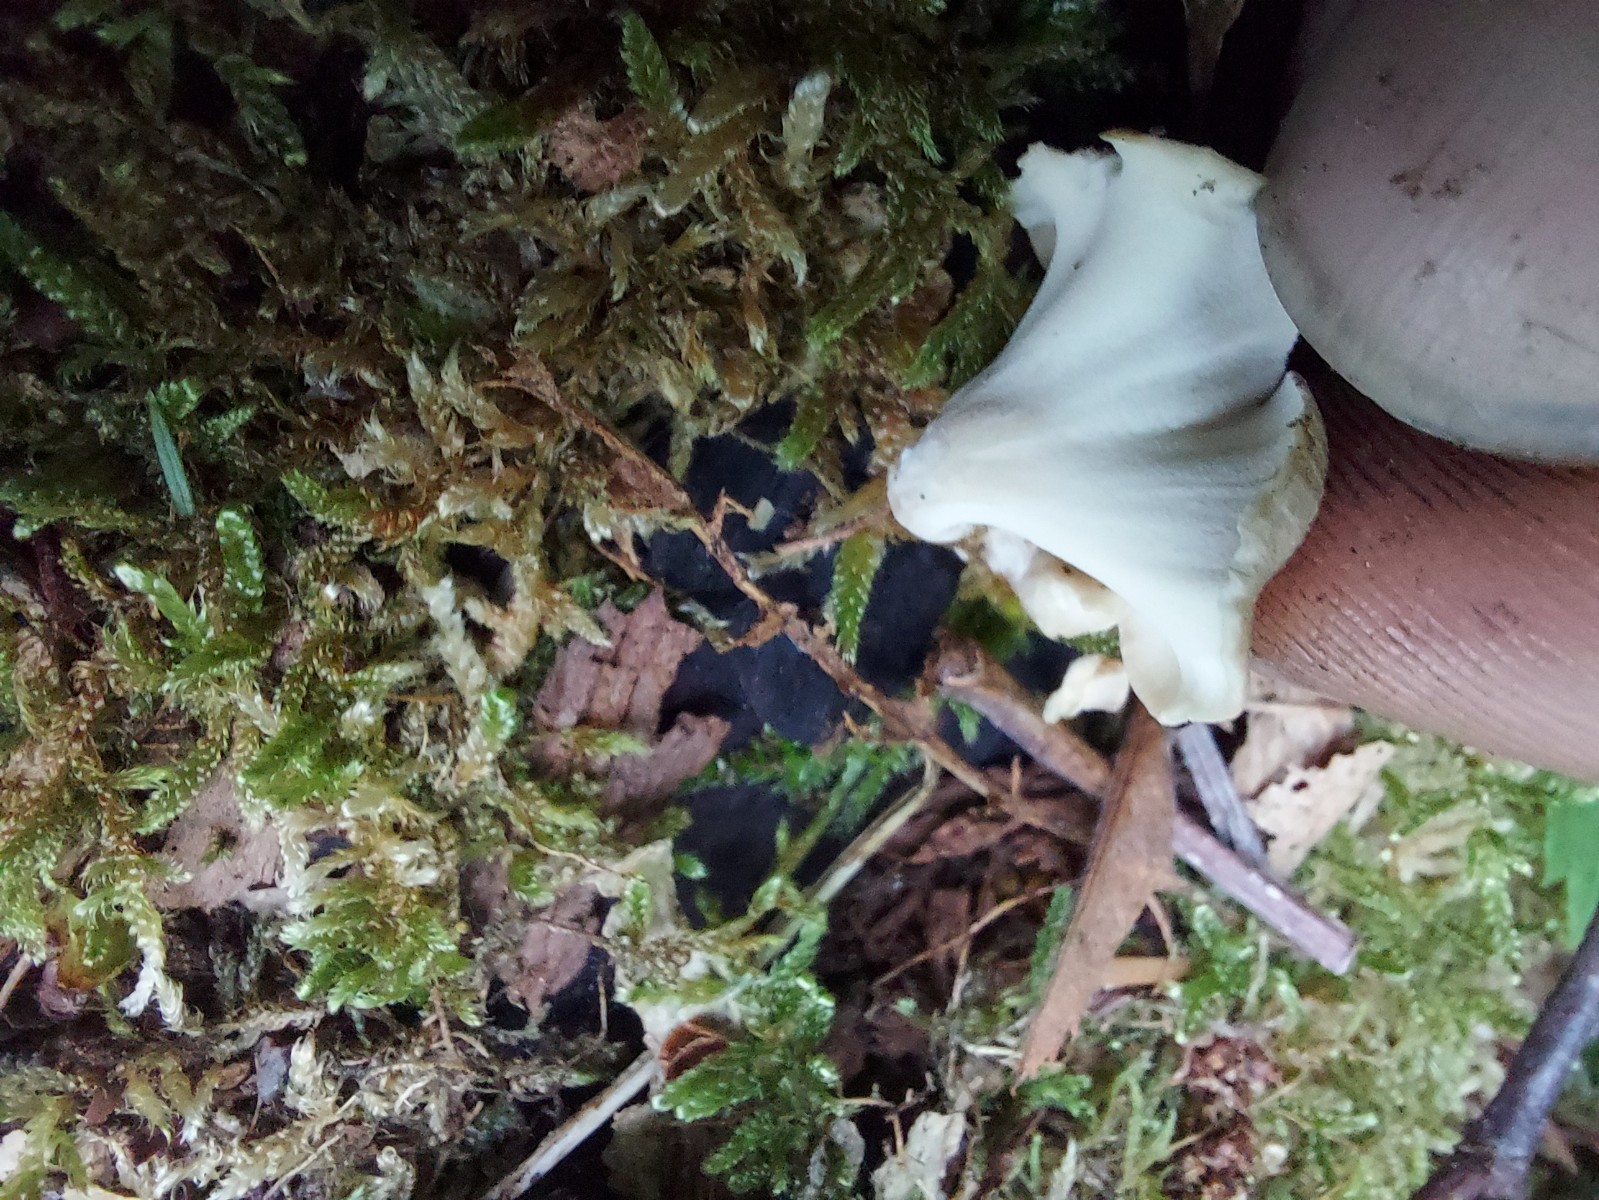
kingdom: Fungi
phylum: Basidiomycota
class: Agaricomycetes
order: Polyporales
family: Polyporaceae
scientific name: Polyporaceae
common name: poresvampfamilien
